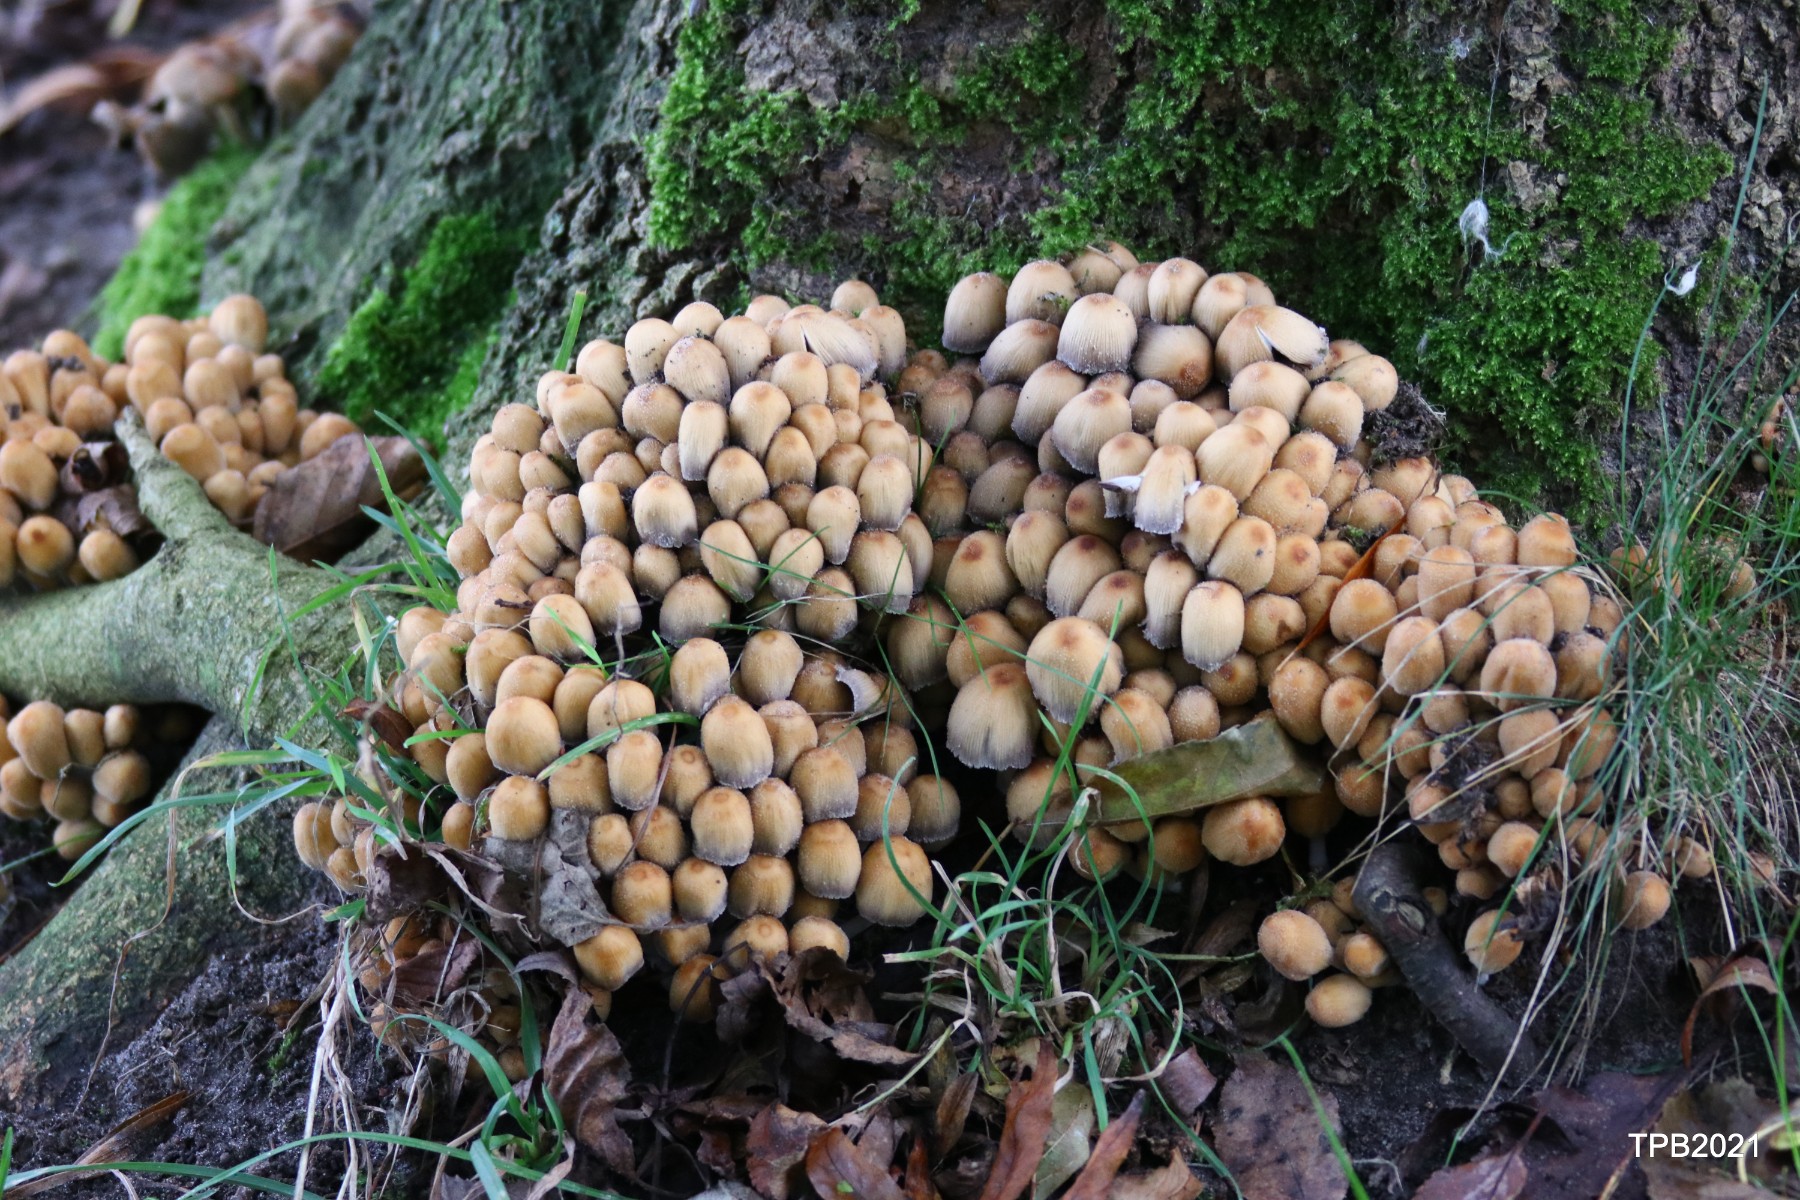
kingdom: Fungi
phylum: Basidiomycota
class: Agaricomycetes
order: Agaricales
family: Psathyrellaceae
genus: Coprinellus
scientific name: Coprinellus
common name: blækhat
